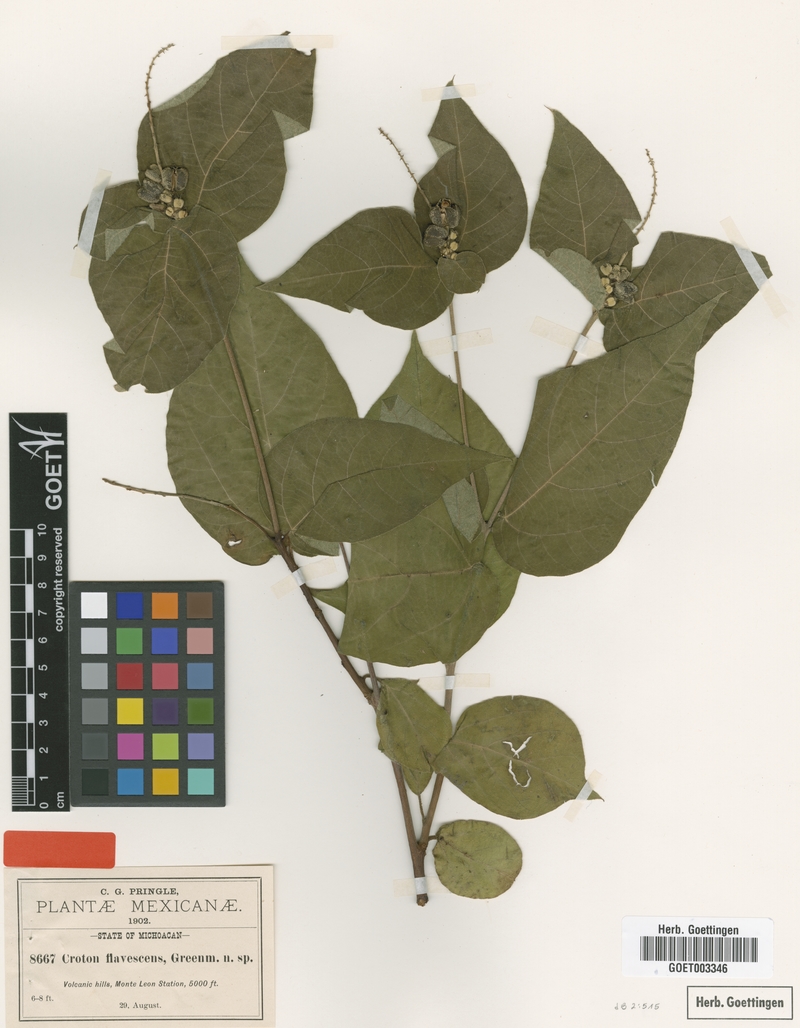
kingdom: Plantae
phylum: Tracheophyta
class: Magnoliopsida
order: Malpighiales
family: Euphorbiaceae
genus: Croton
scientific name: Croton morifolius
